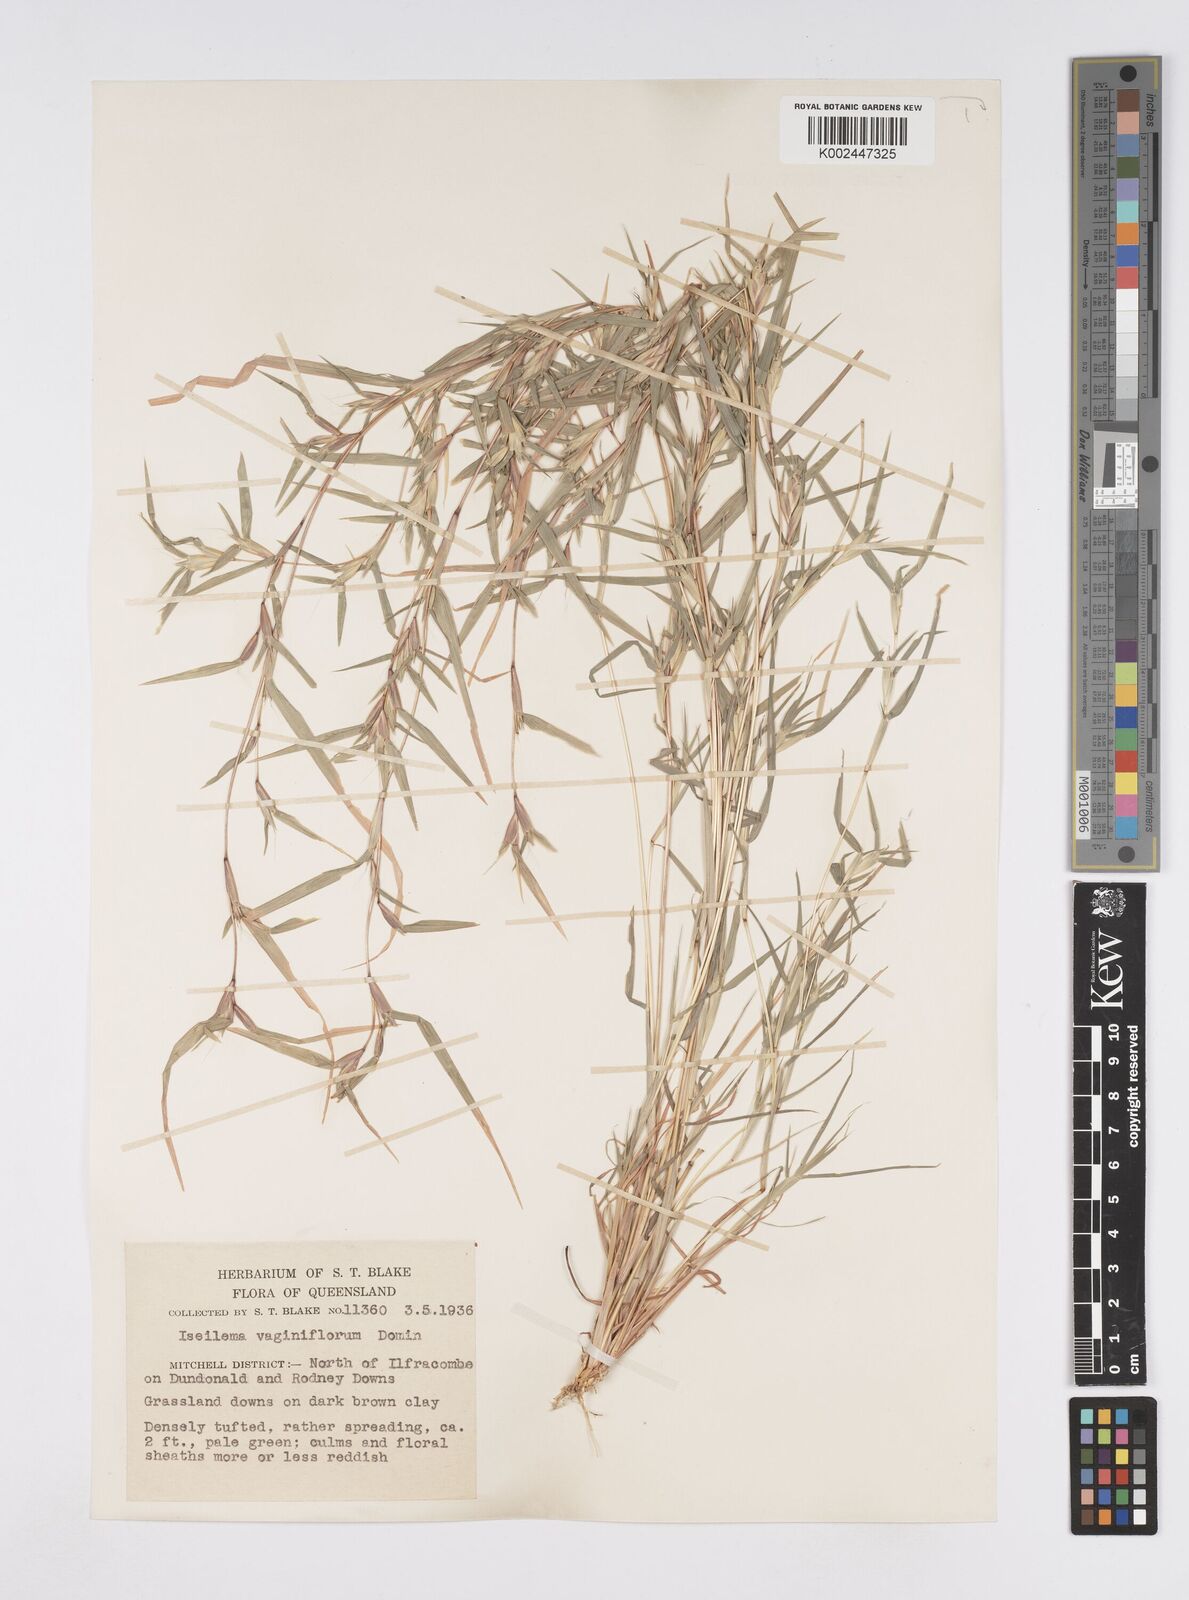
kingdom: Plantae
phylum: Tracheophyta
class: Liliopsida
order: Poales
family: Poaceae
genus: Iseilema
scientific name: Iseilema vaginiflorum
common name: Red flinders grass
